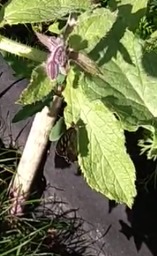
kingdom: Animalia
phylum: Arthropoda
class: Insecta
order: Lepidoptera
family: Nymphalidae
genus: Pararge
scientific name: Pararge aegeria
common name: Skovrandøje
